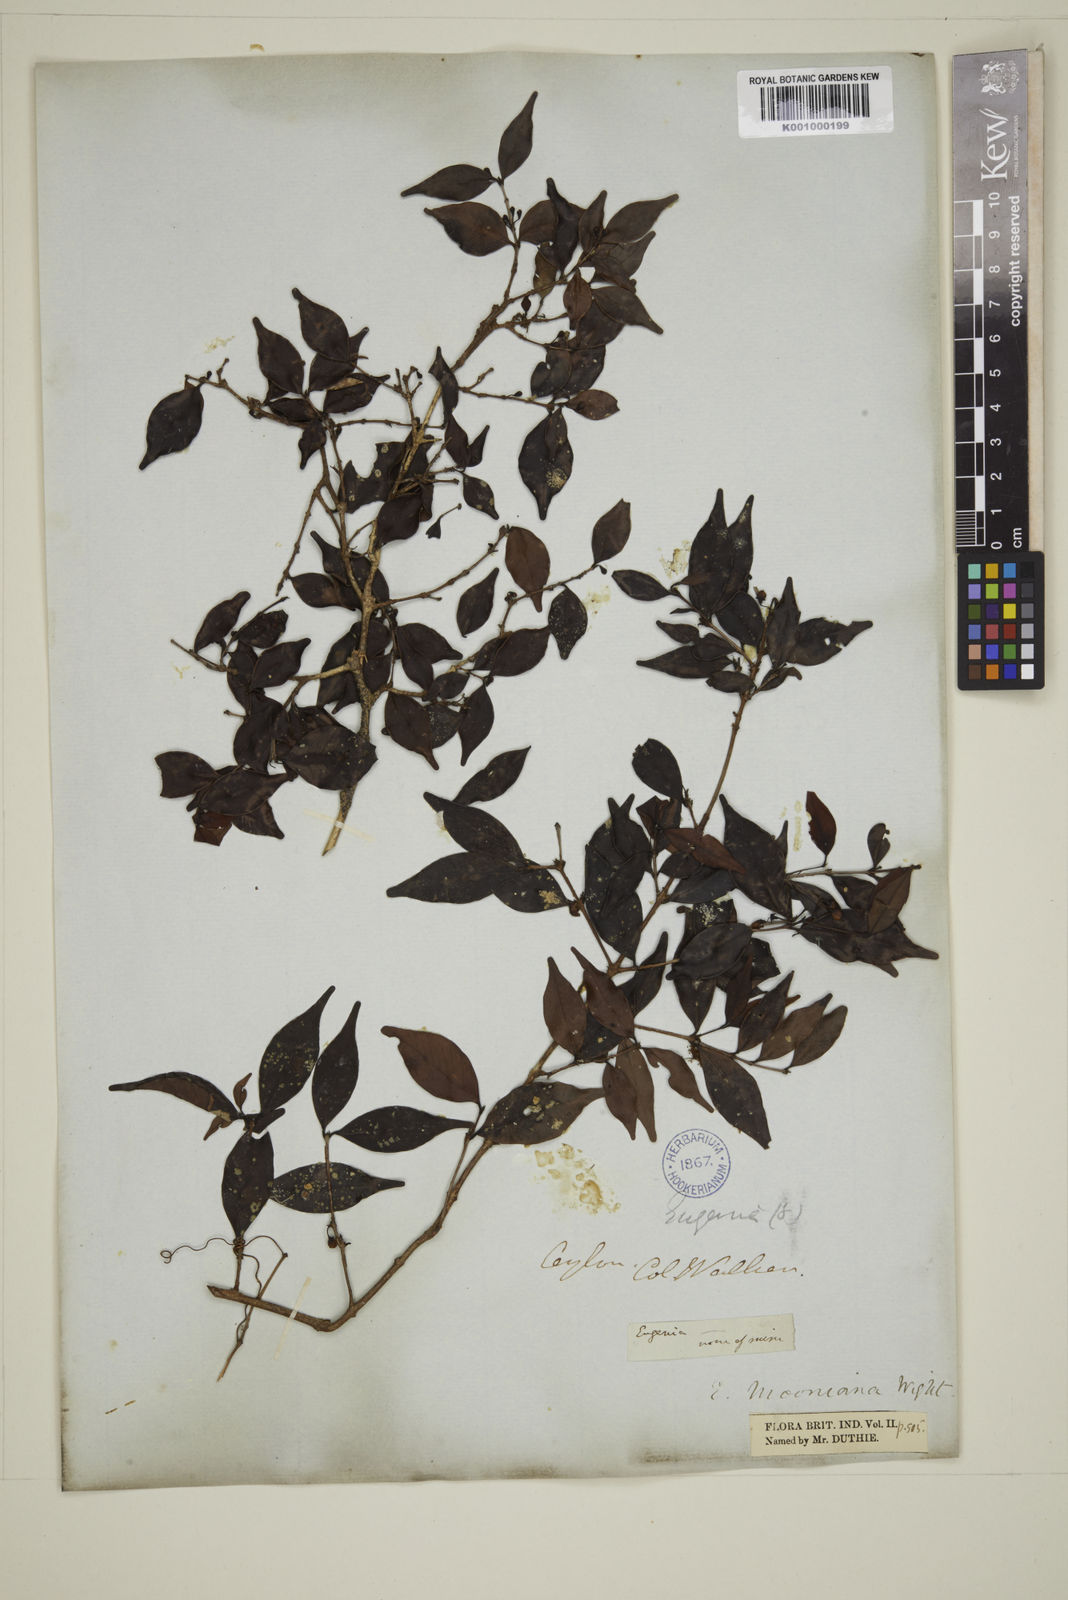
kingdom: Plantae
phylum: Tracheophyta
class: Magnoliopsida
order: Myrtales
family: Myrtaceae
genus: Eugenia
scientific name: Eugenia thwaitesii
